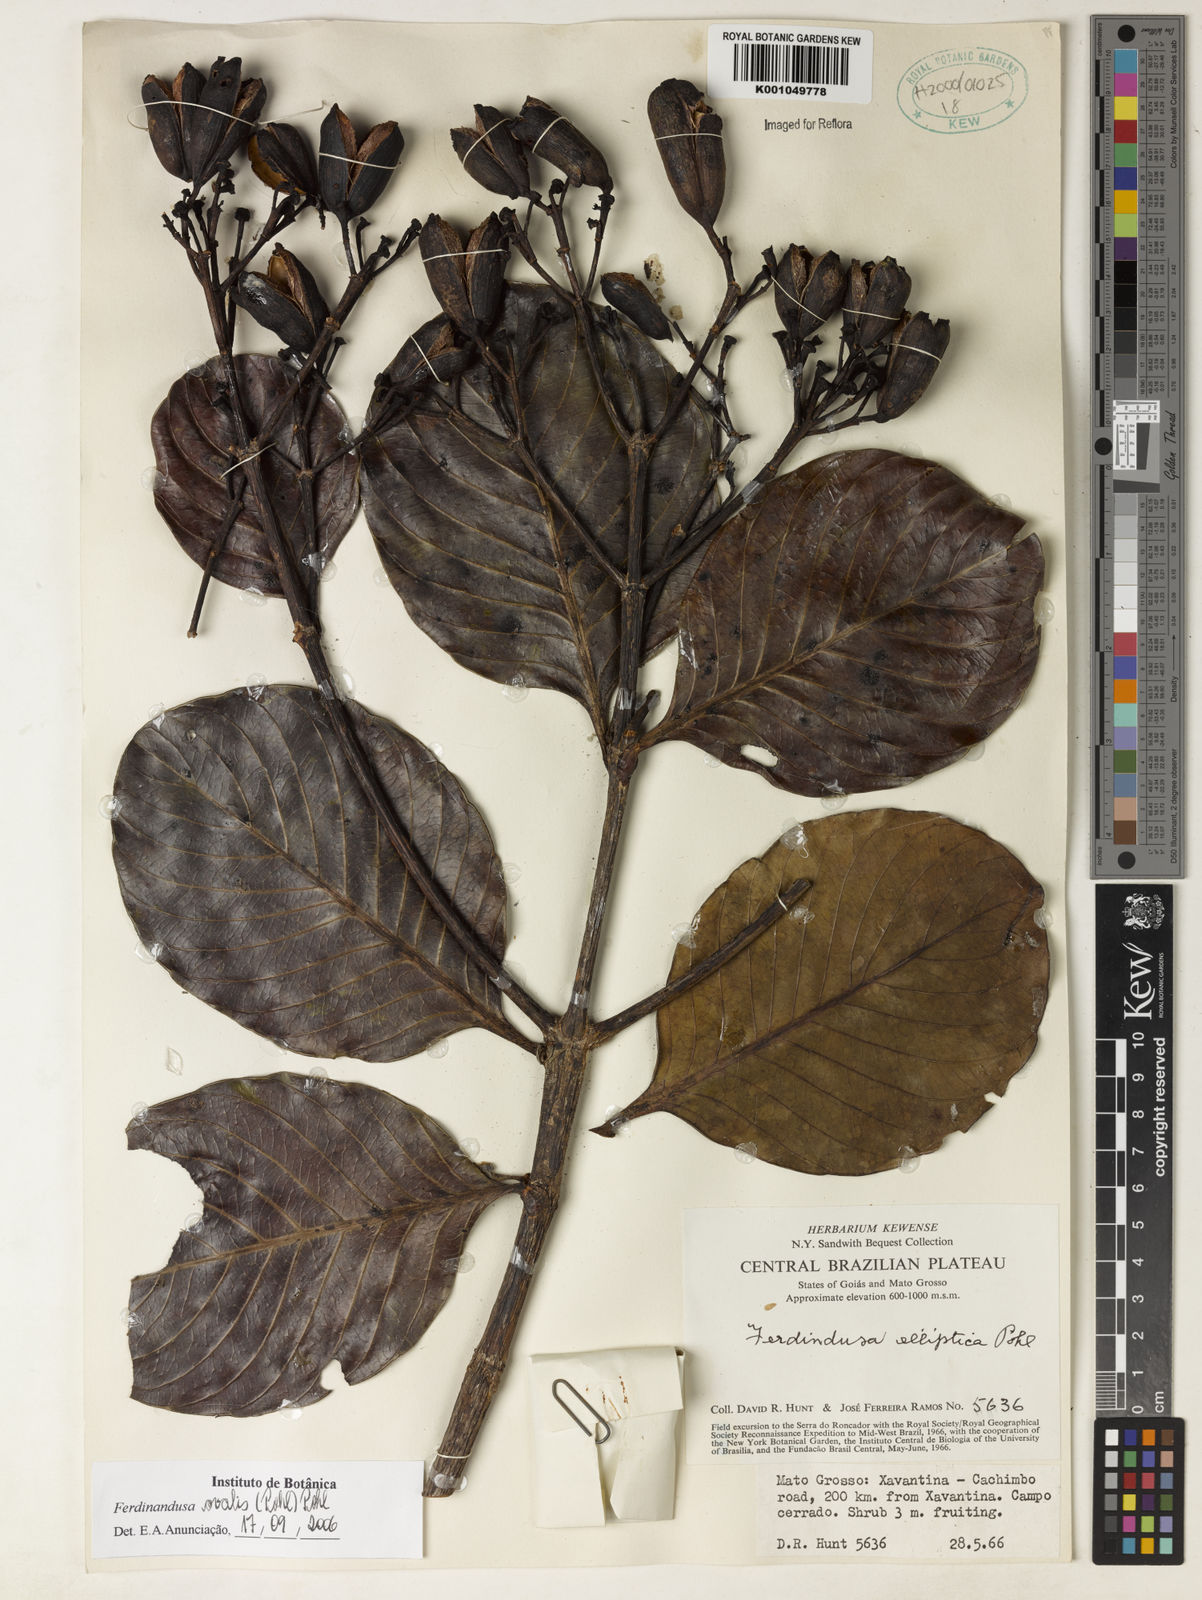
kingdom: Plantae
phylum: Tracheophyta
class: Magnoliopsida
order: Gentianales
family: Rubiaceae
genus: Ferdinandusa
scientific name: Ferdinandusa elliptica
